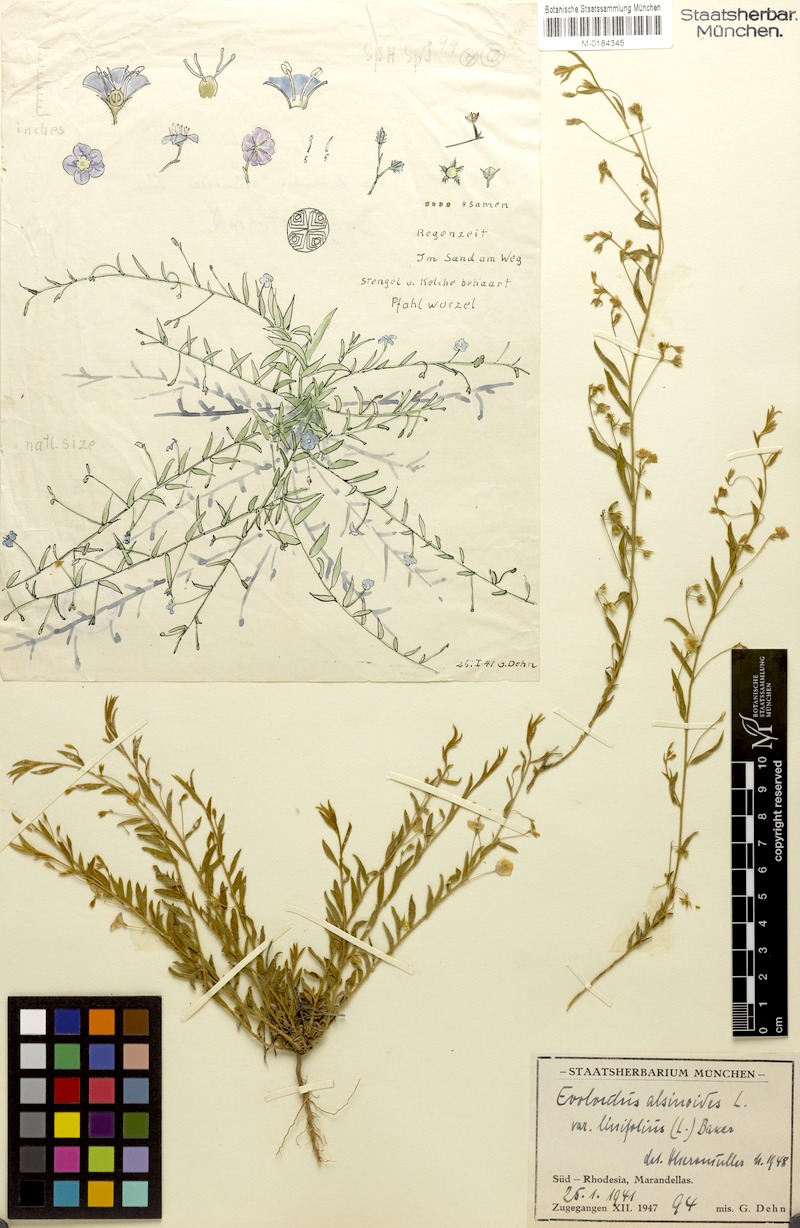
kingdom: Plantae
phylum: Tracheophyta
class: Magnoliopsida
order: Solanales
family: Convolvulaceae
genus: Evolvulus
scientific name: Evolvulus alsinoides
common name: Slender dwarf morning-glory
